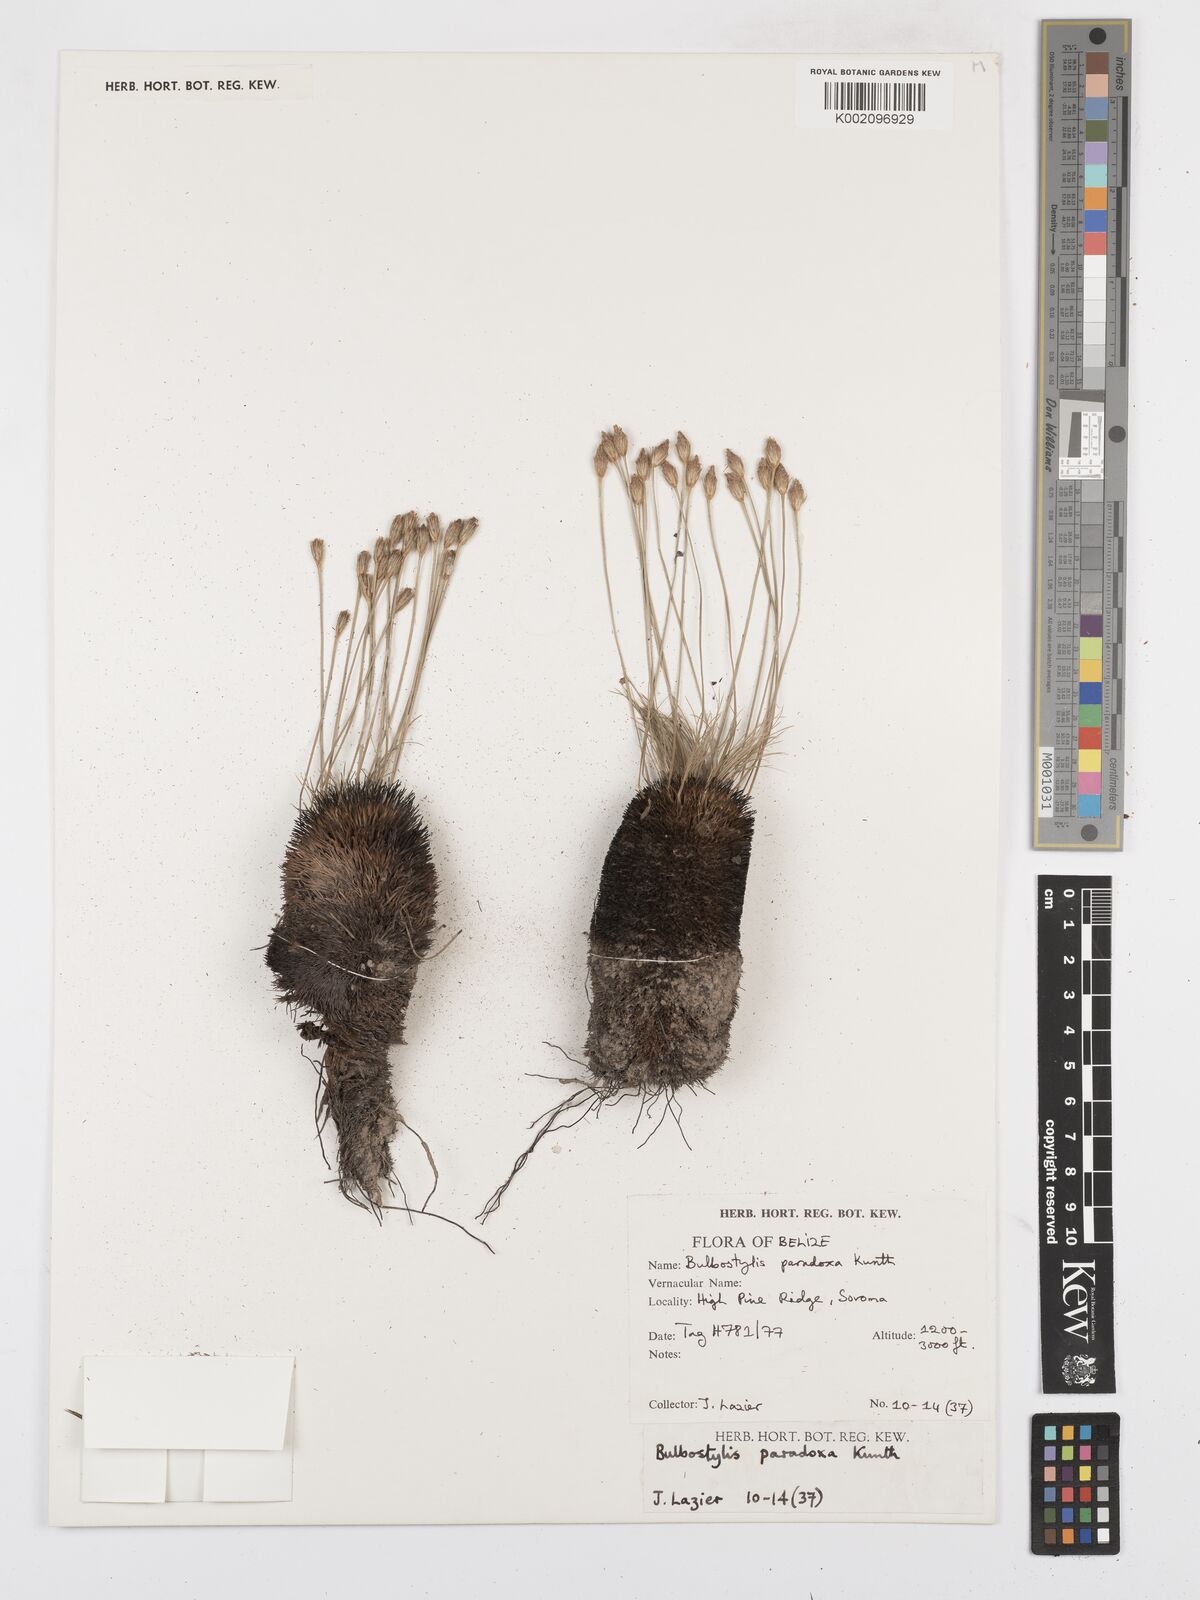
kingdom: Plantae
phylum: Tracheophyta
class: Liliopsida
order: Poales
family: Cyperaceae
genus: Bulbostylis
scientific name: Bulbostylis paradoxa
